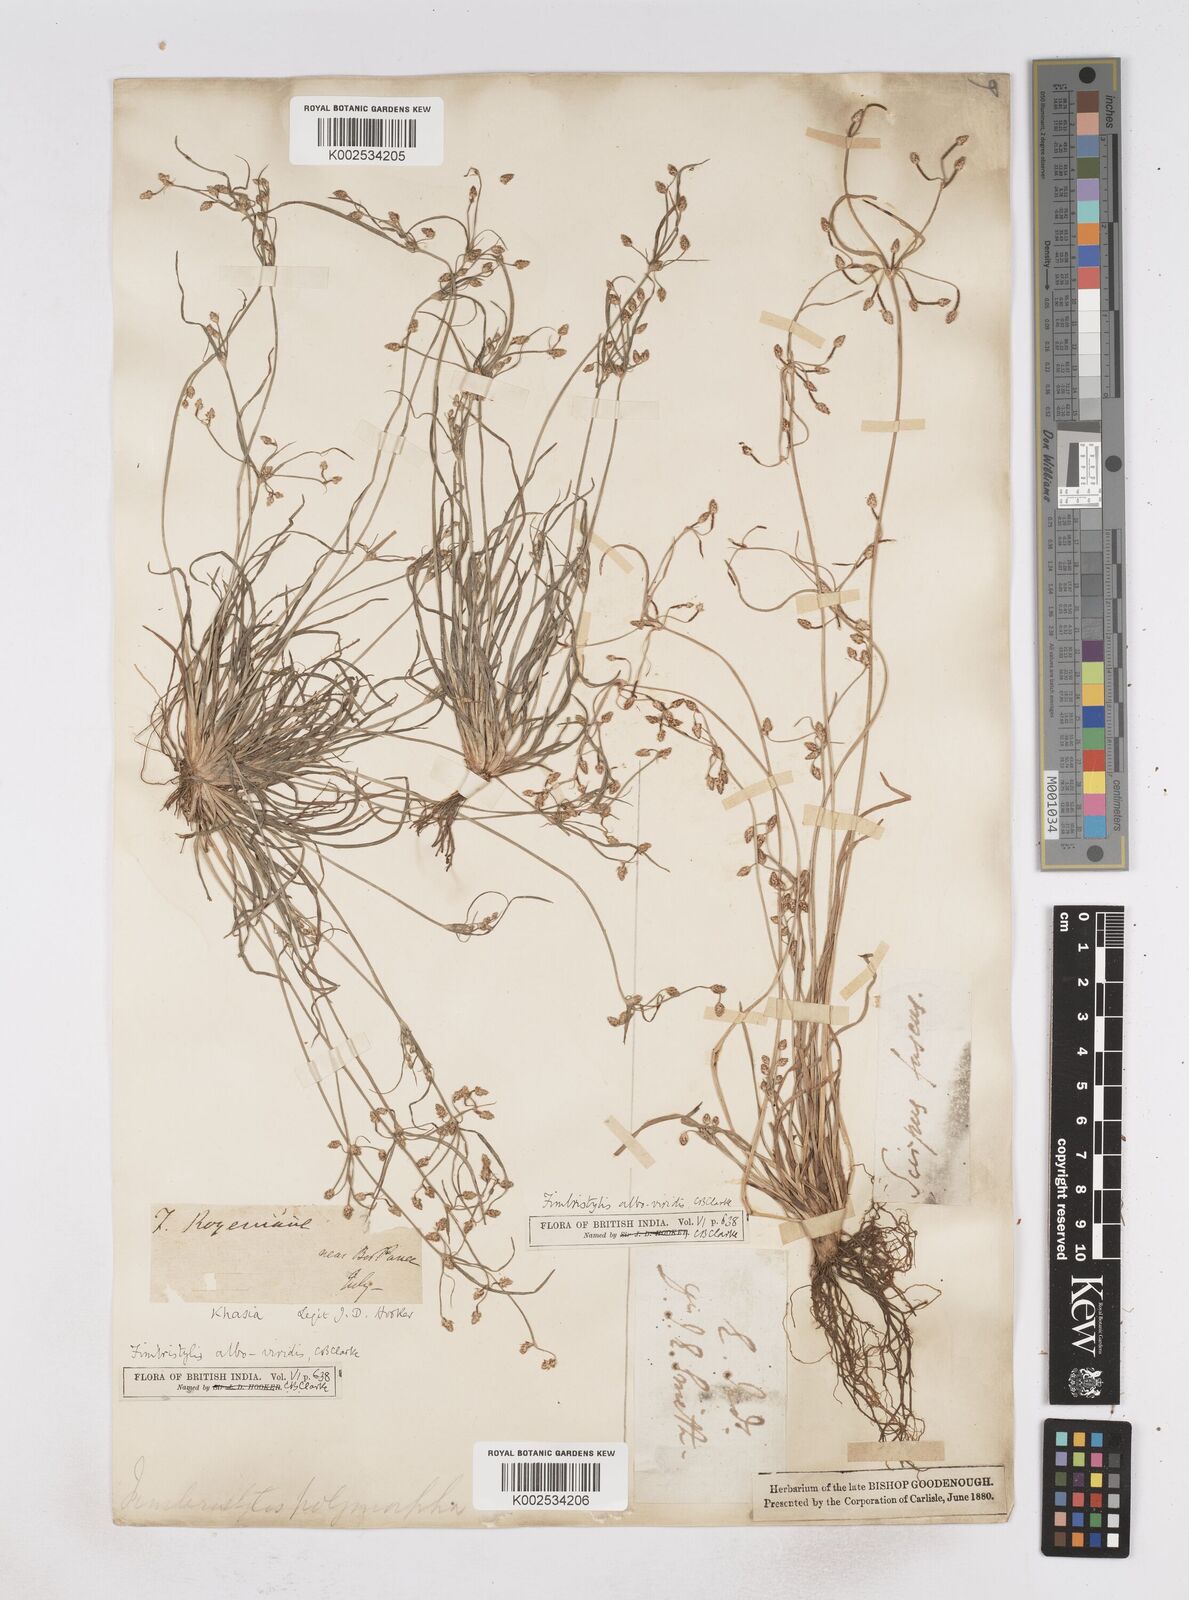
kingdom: Plantae
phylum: Tracheophyta
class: Liliopsida
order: Poales
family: Cyperaceae
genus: Fimbristylis
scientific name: Fimbristylis alboviridis
